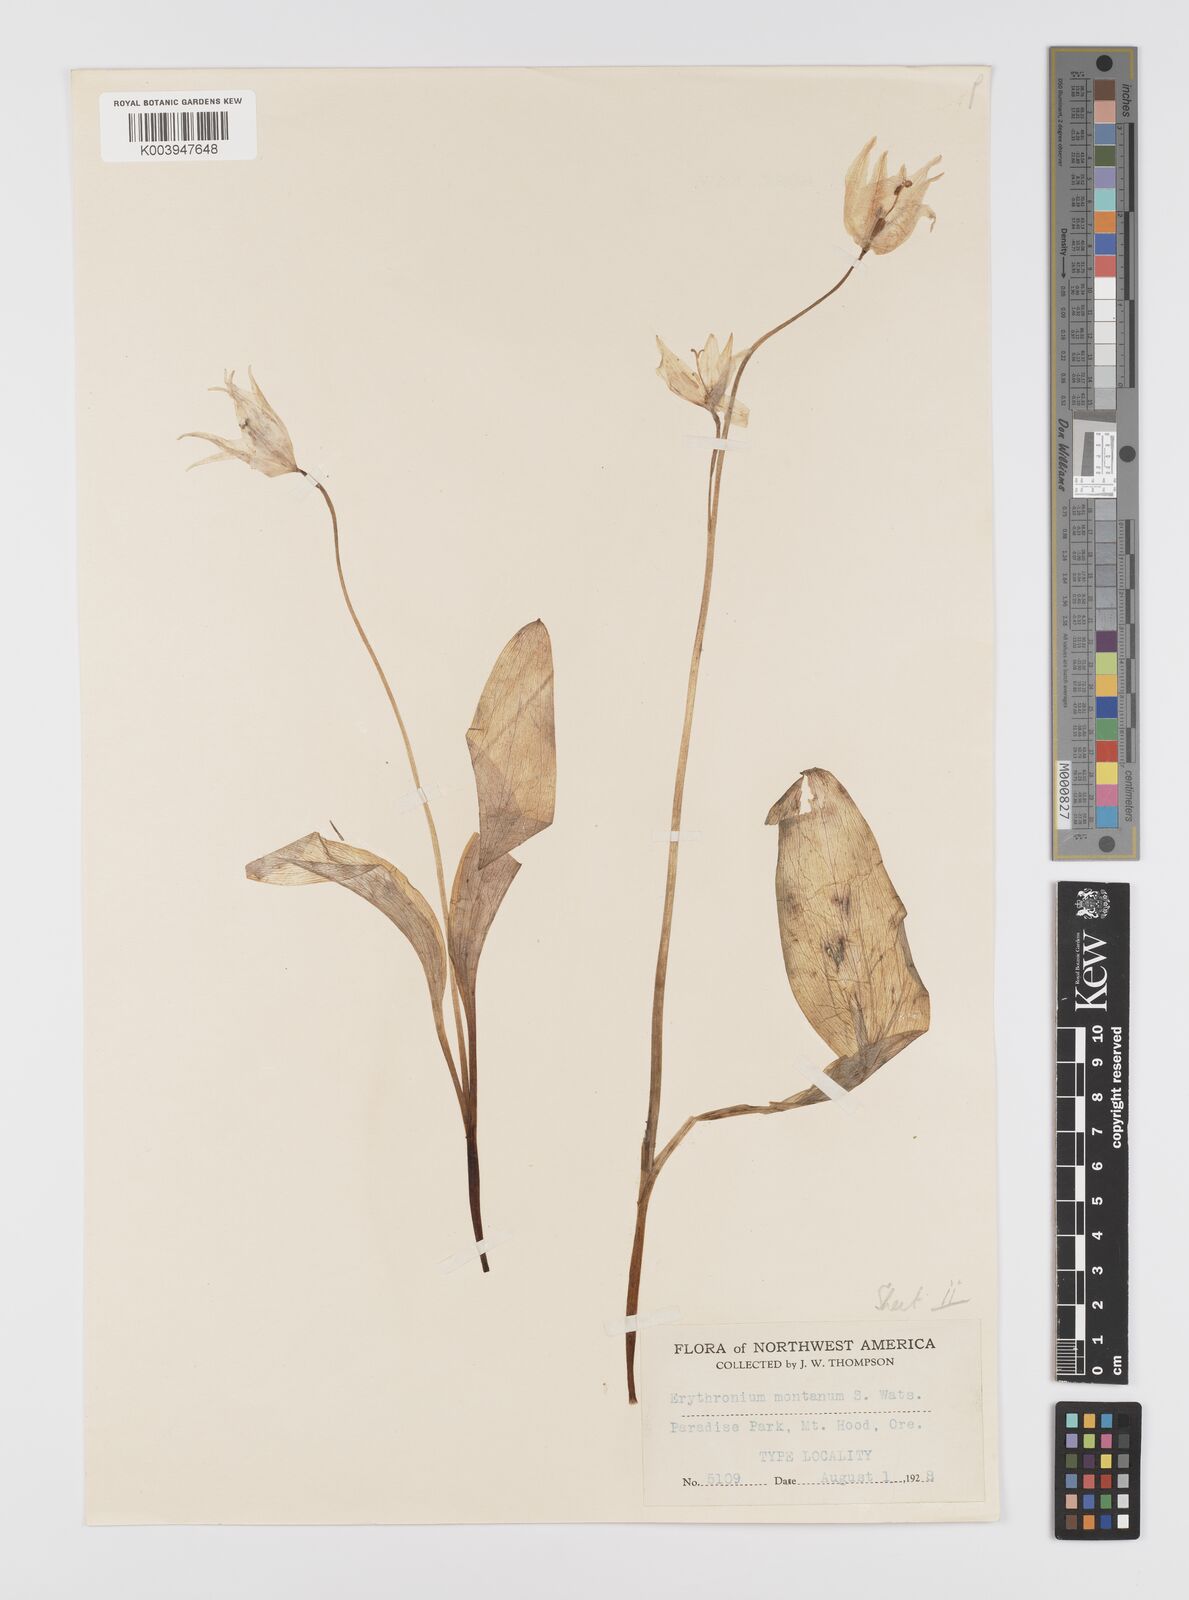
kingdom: Plantae
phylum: Tracheophyta
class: Liliopsida
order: Liliales
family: Liliaceae
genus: Erythronium
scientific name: Erythronium montanum
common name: Avalanche lily
